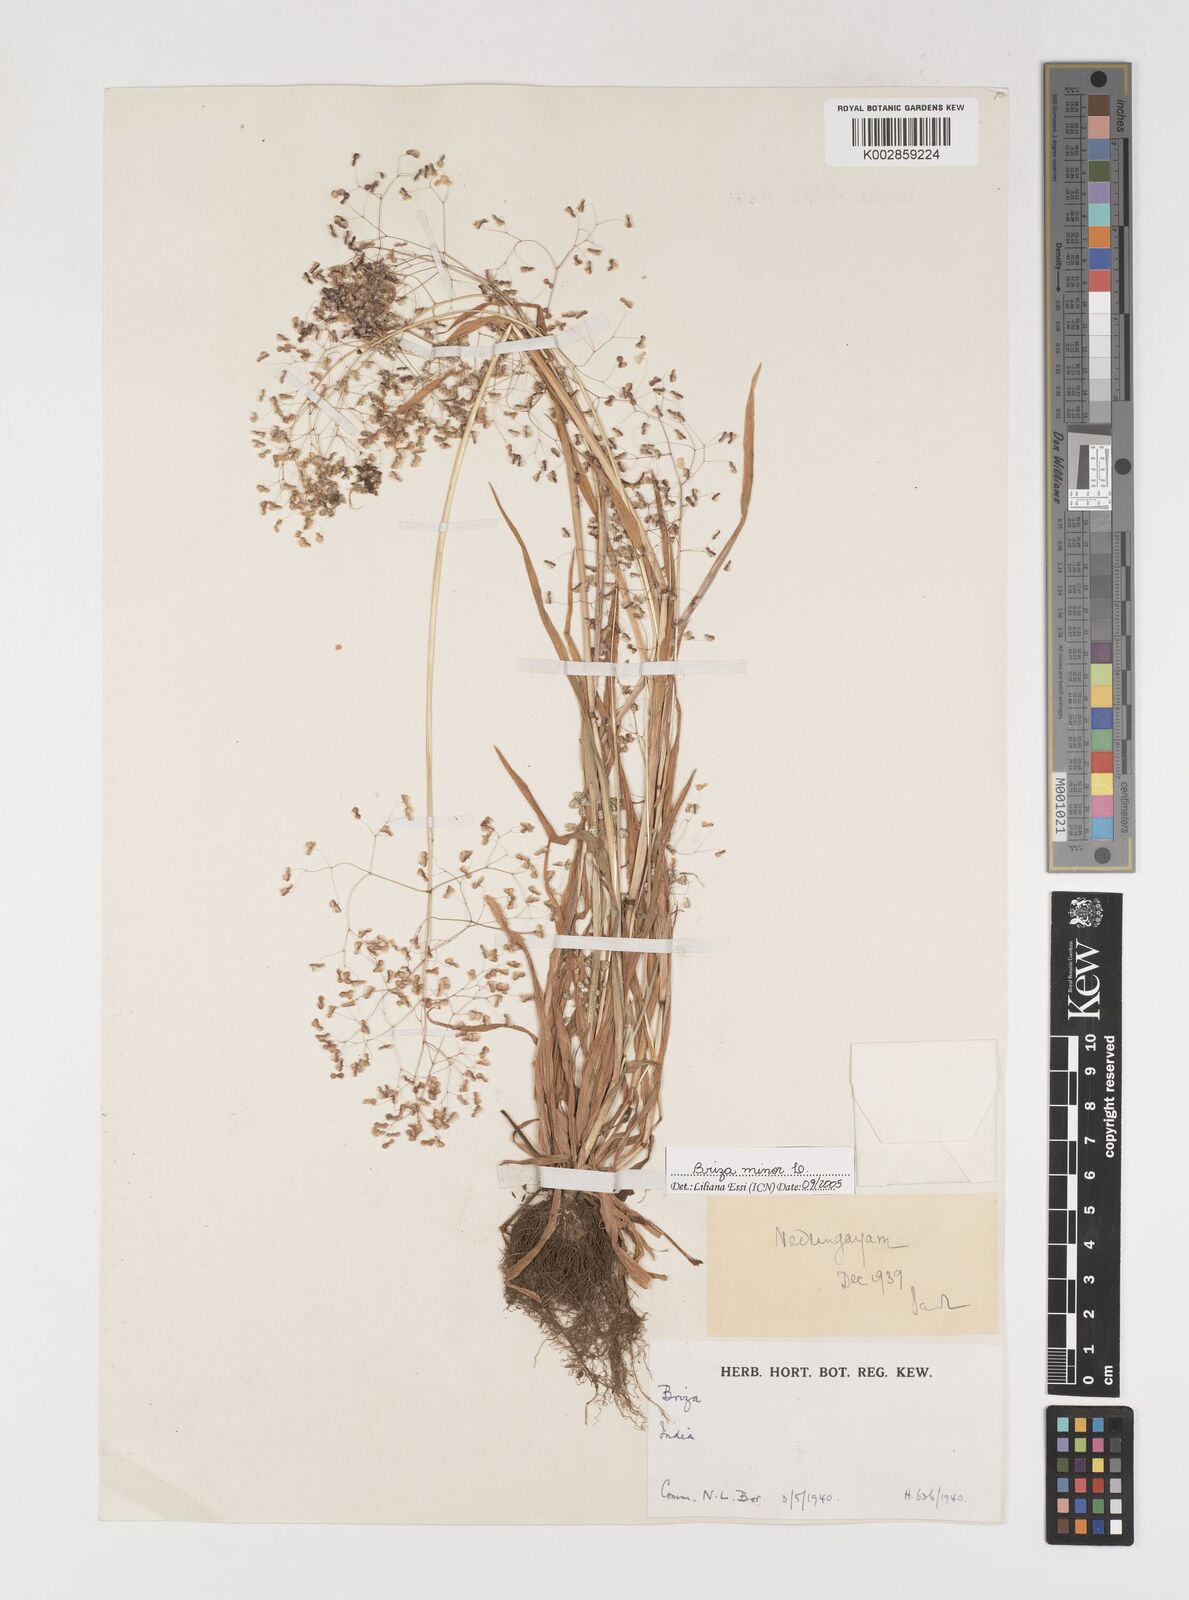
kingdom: Plantae
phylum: Tracheophyta
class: Liliopsida
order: Poales
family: Poaceae
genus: Briza
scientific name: Briza minor
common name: Lesser quaking-grass
